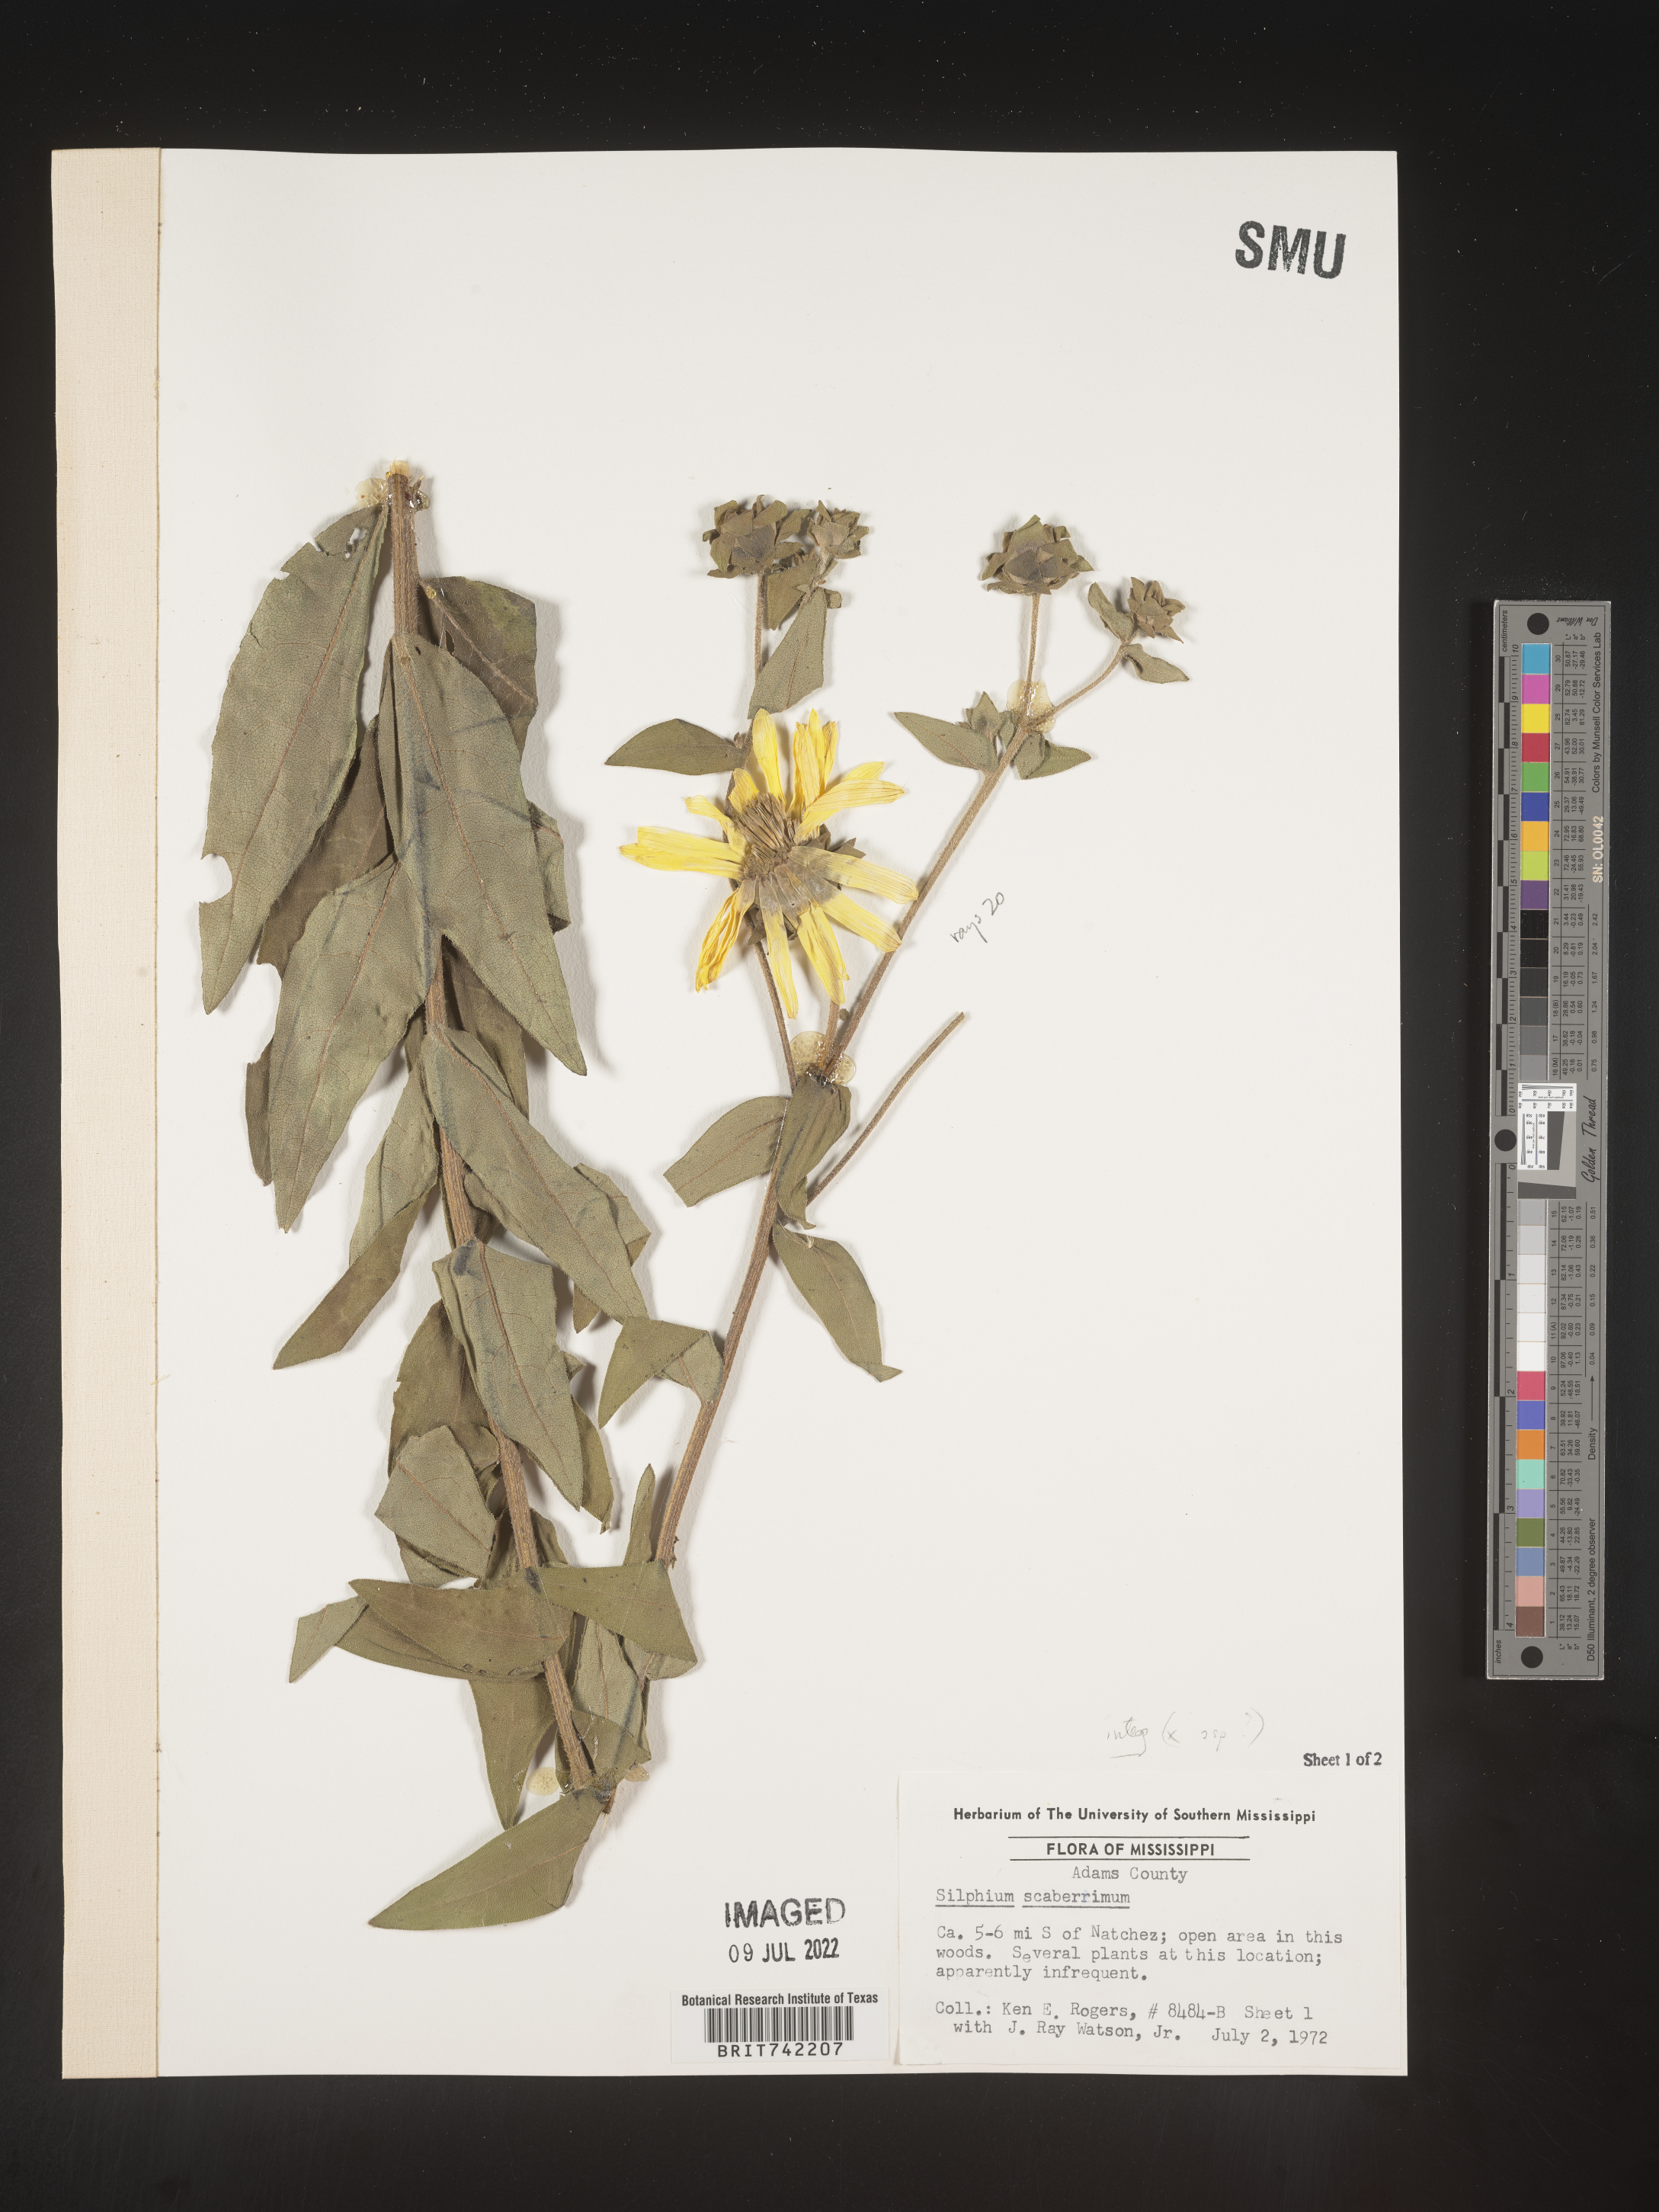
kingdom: Plantae
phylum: Tracheophyta
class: Magnoliopsida
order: Asterales
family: Asteraceae
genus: Silphium
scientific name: Silphium integrifolium
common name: Whole-leaf rosinweed
